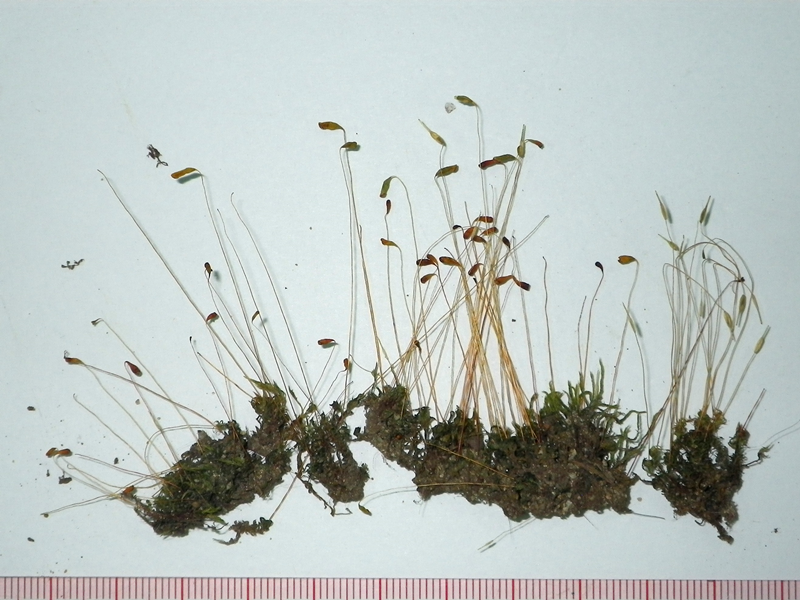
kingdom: Plantae
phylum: Bryophyta
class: Bryopsida
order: Funariales
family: Funariaceae
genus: Funaria
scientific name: Funaria hygrometrica
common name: Common cord moss
